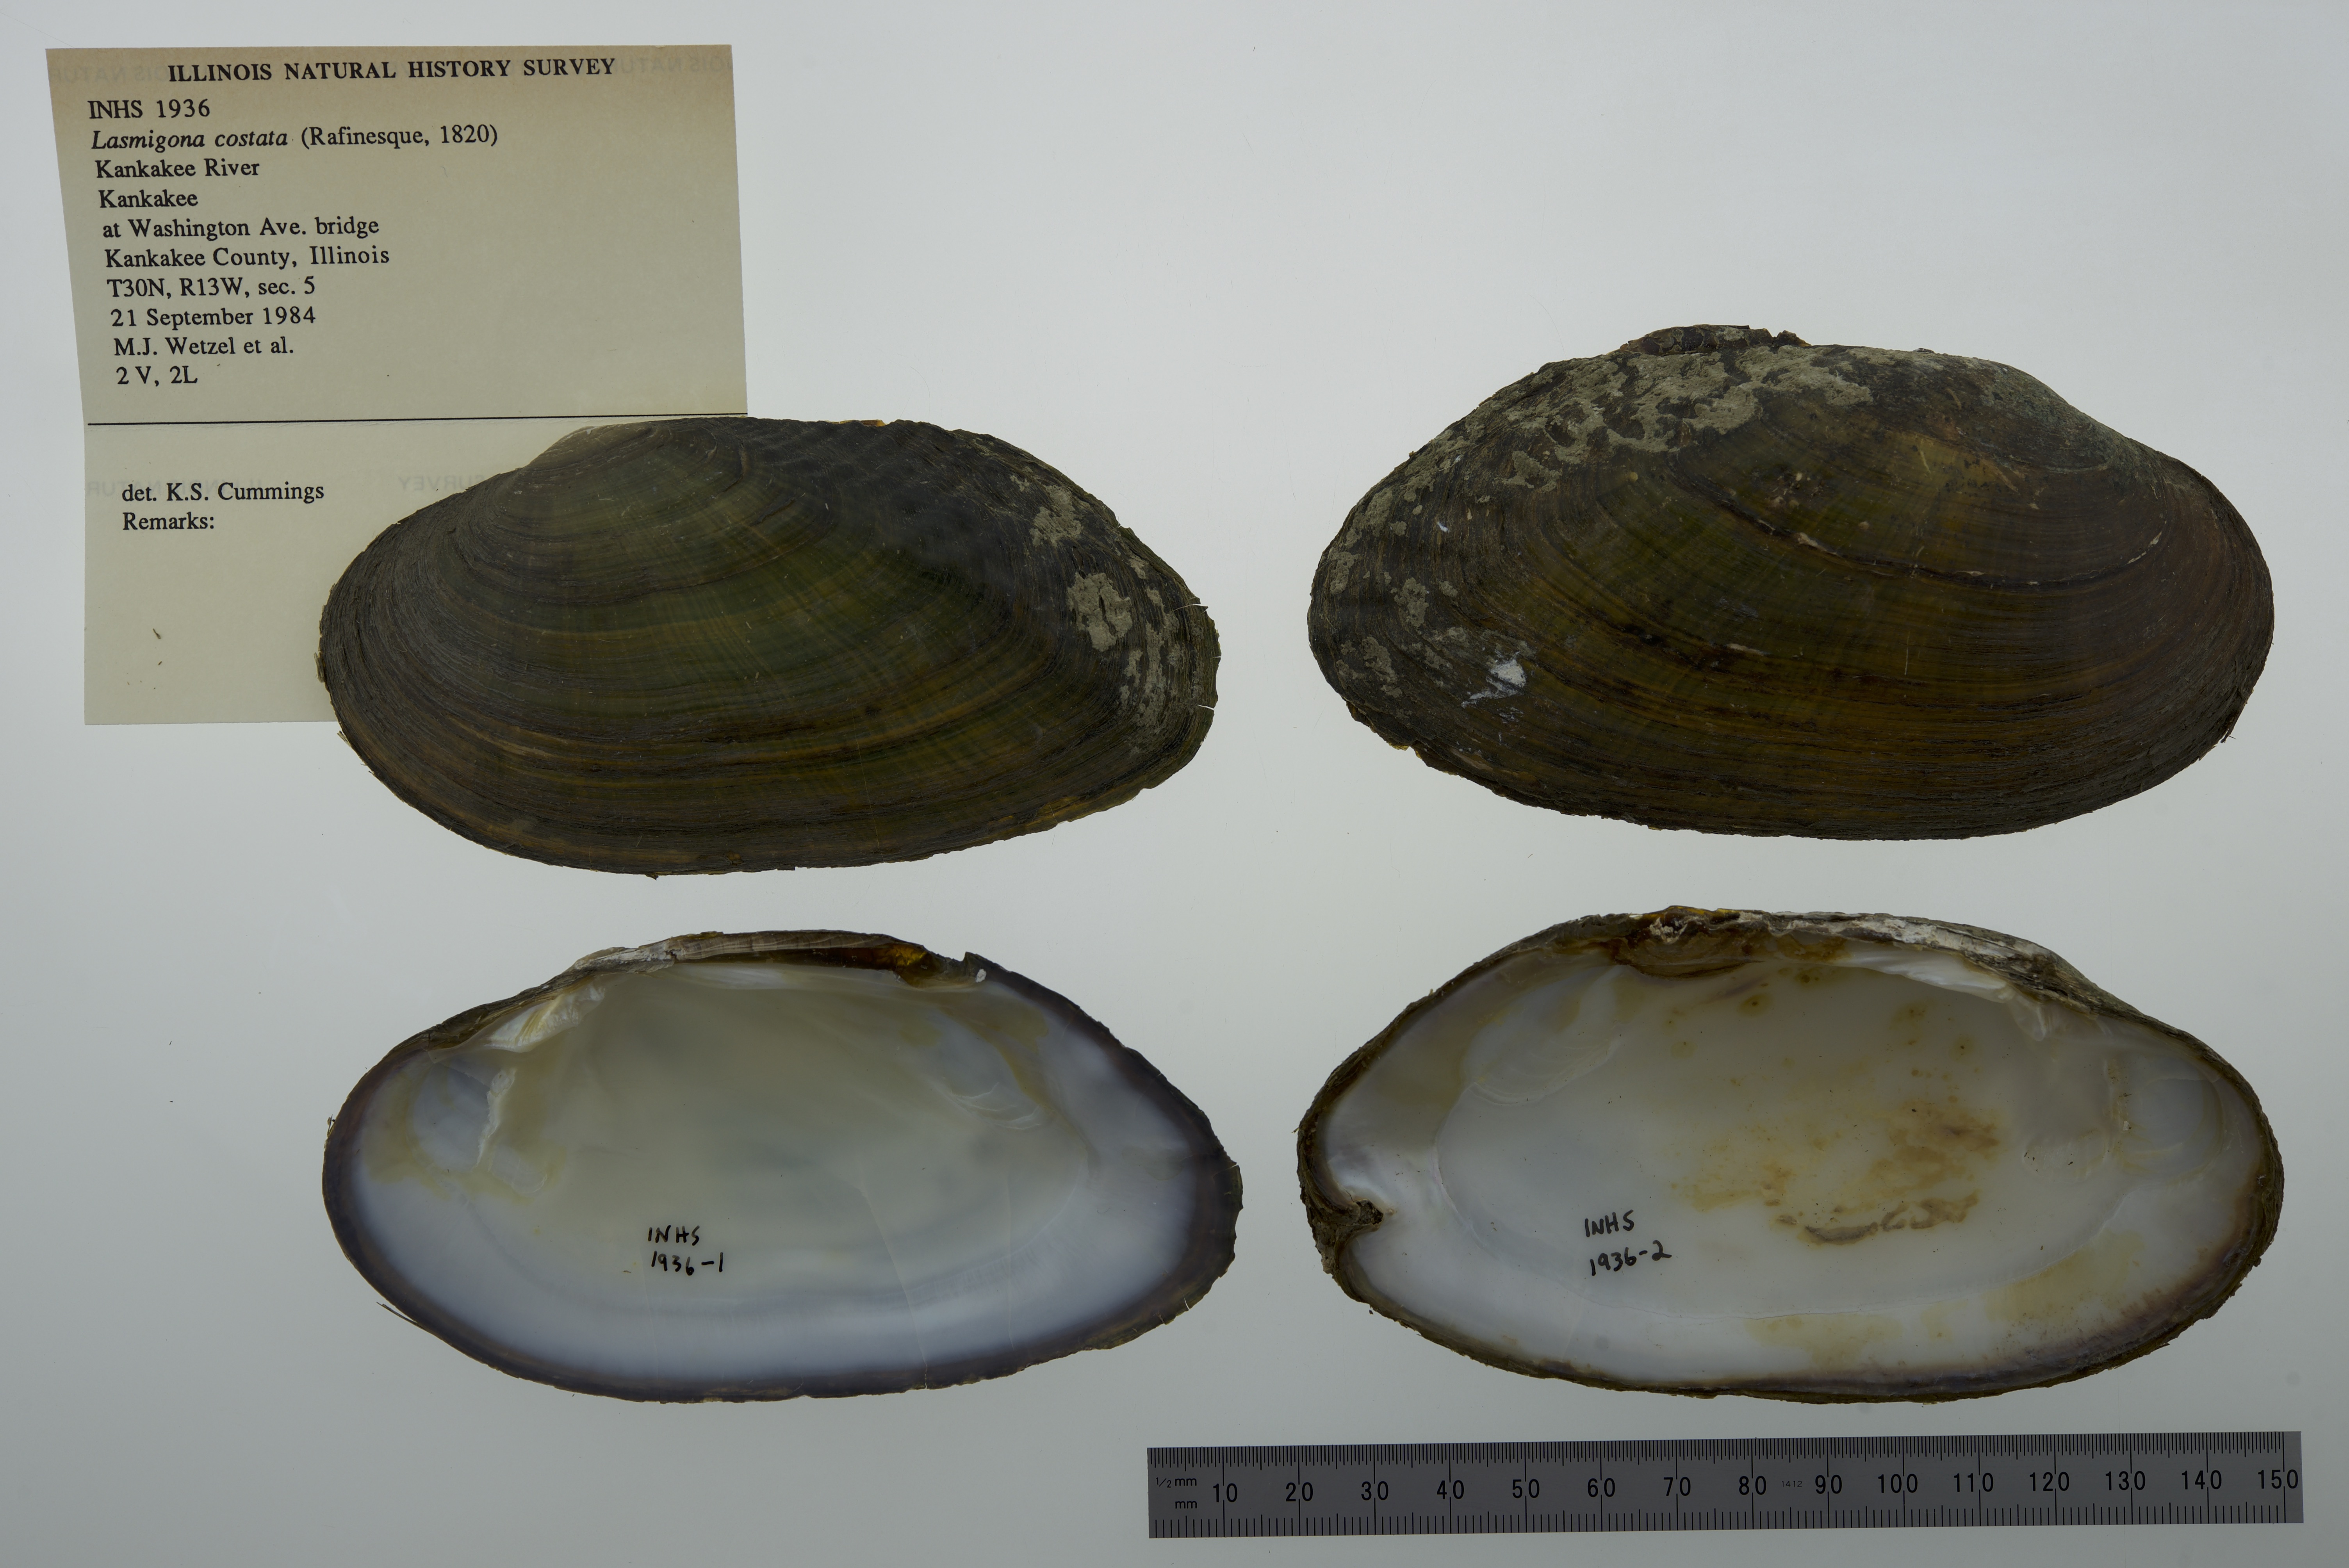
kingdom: Animalia
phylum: Mollusca
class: Bivalvia
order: Unionida
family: Unionidae
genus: Lasmigona
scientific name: Lasmigona costata
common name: Flutedshell
